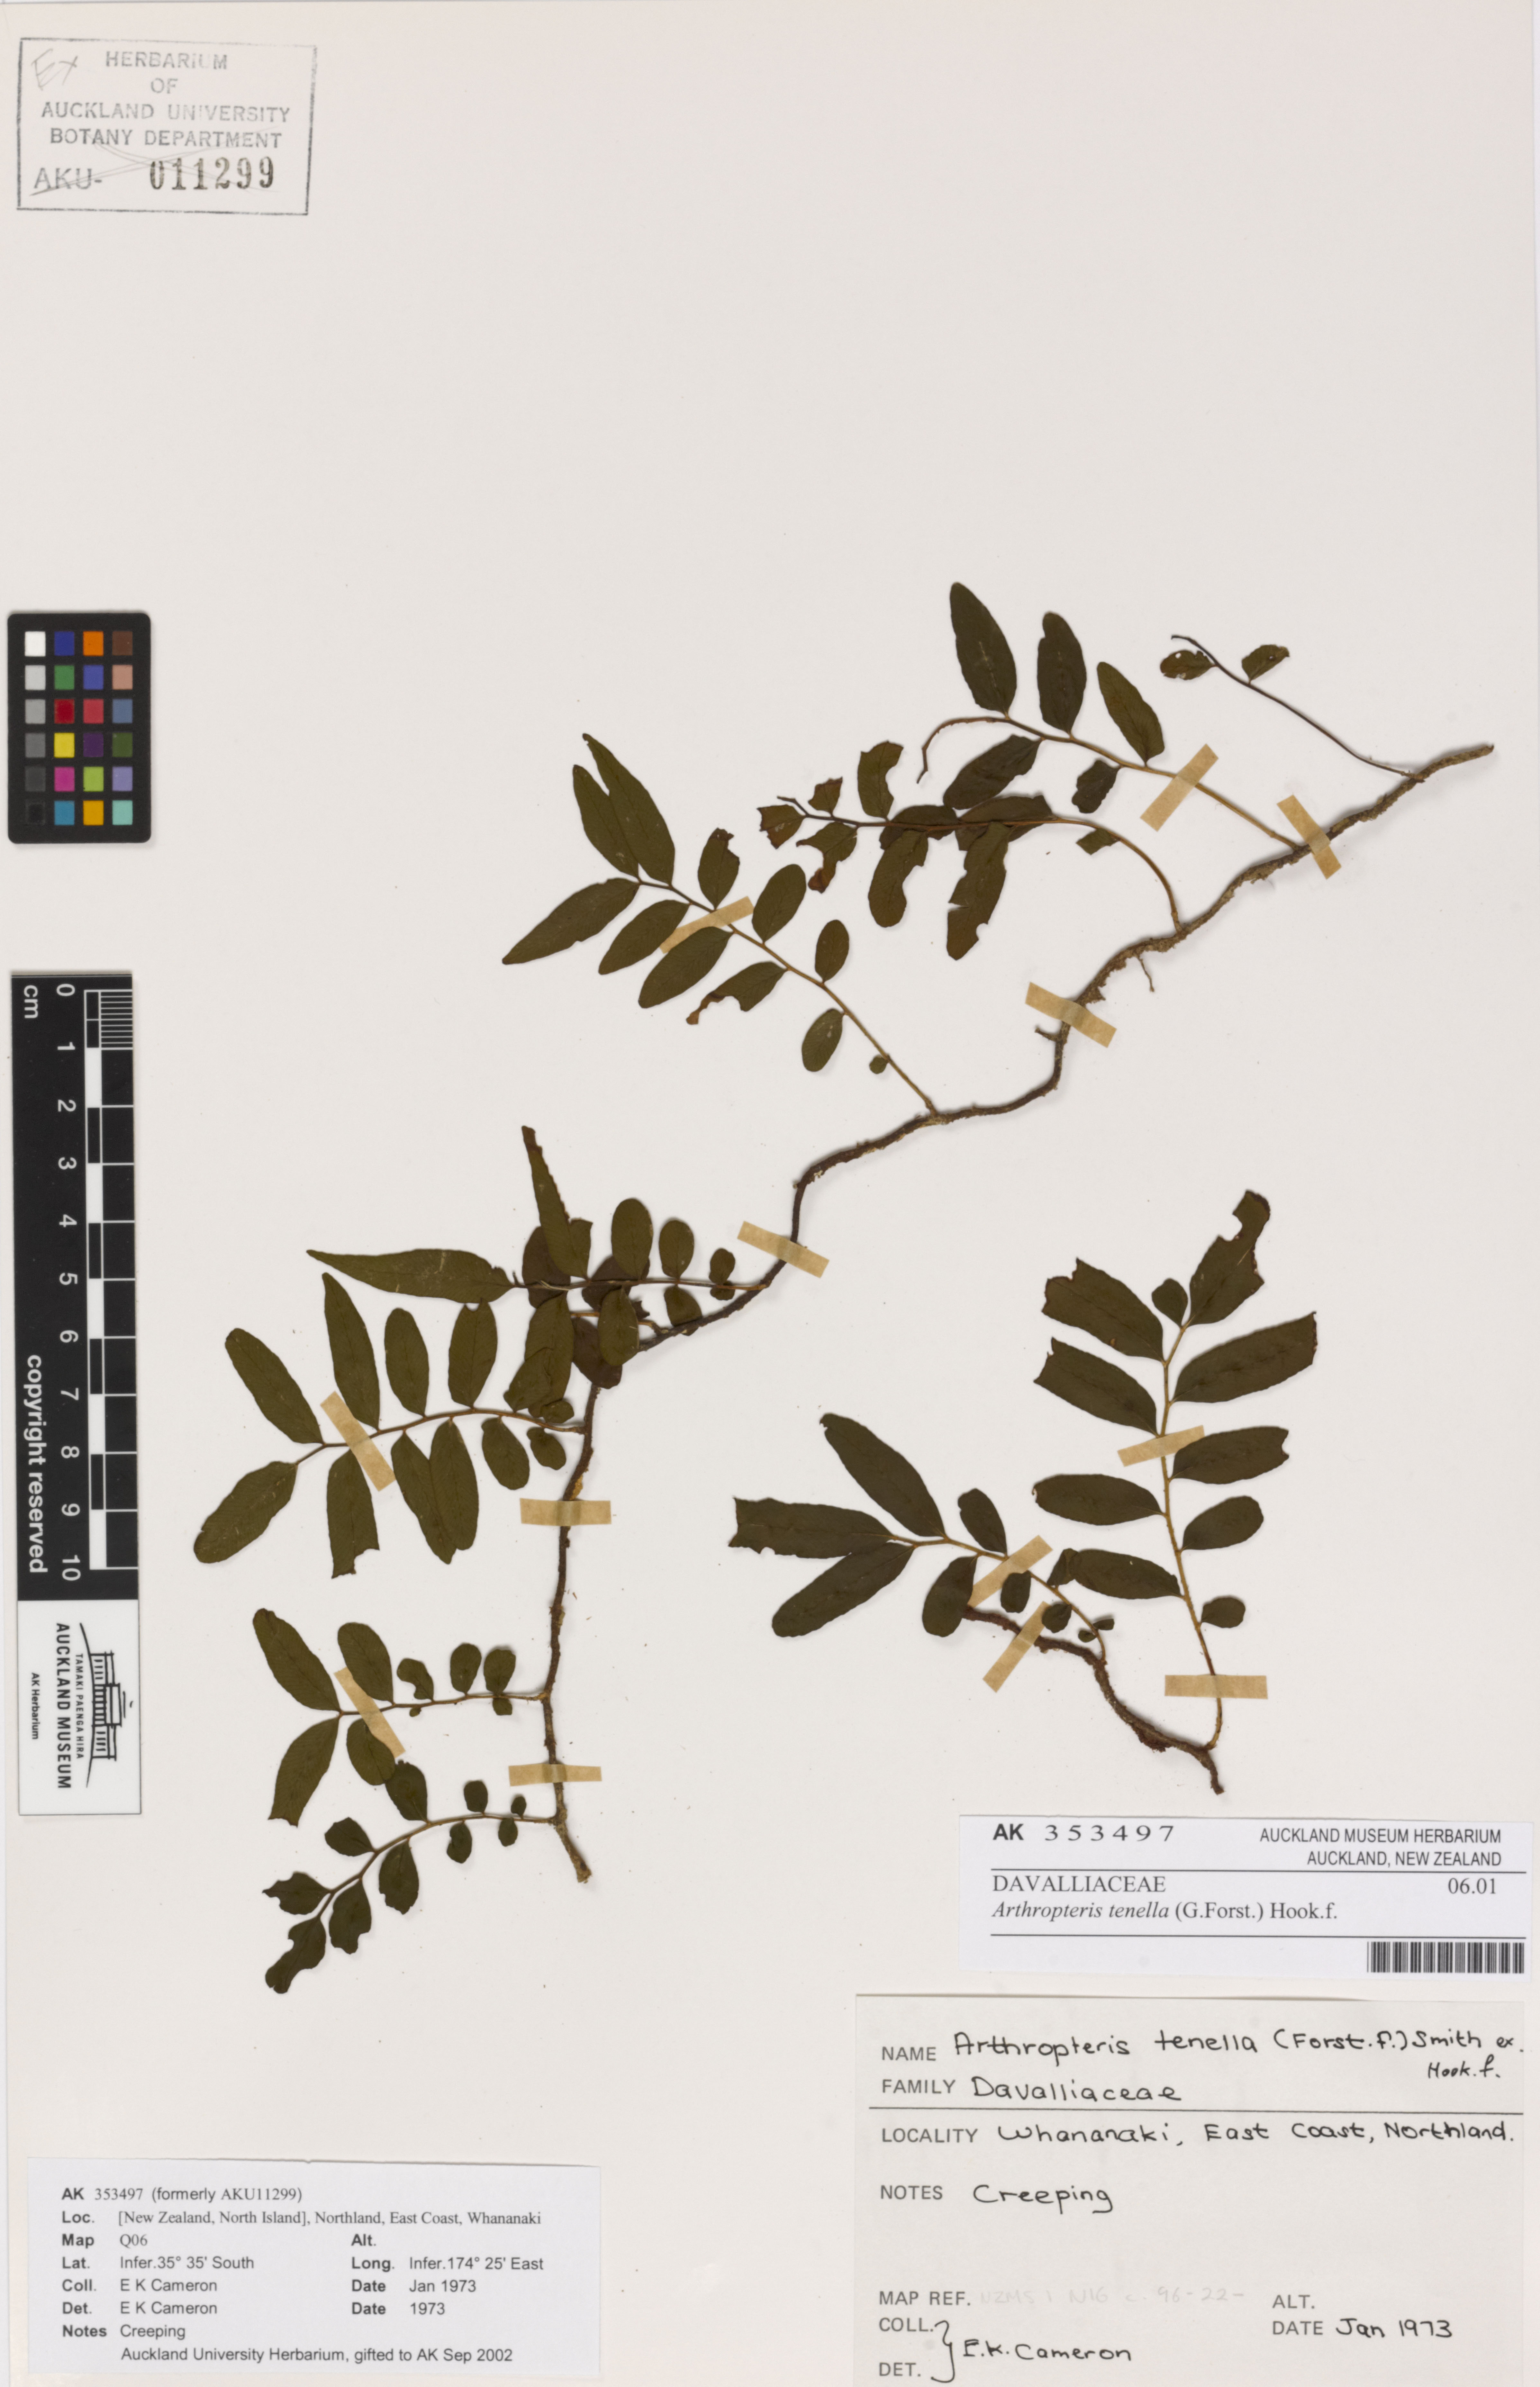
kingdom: Plantae
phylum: Tracheophyta
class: Polypodiopsida
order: Polypodiales
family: Tectariaceae
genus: Arthropteris
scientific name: Arthropteris tenella
